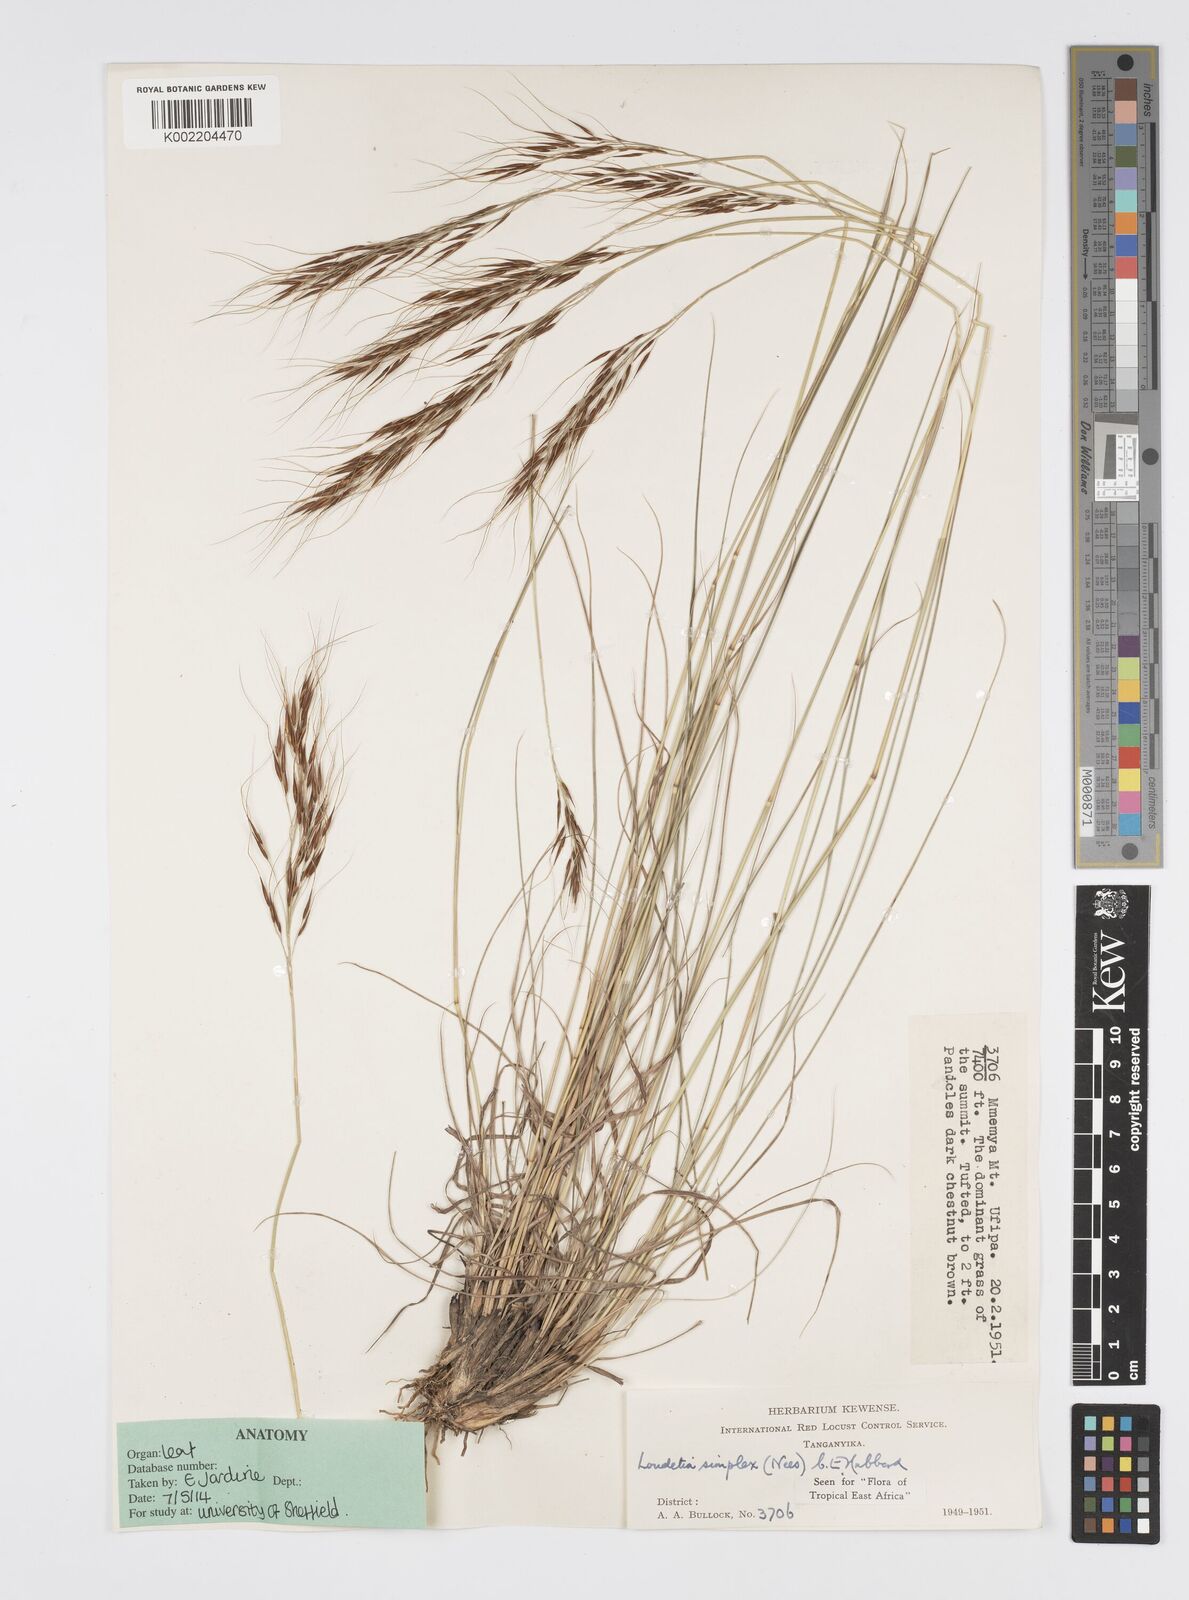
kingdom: Plantae
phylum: Tracheophyta
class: Liliopsida
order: Poales
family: Poaceae
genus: Loudetia
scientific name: Loudetia simplex
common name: Common russet grass
